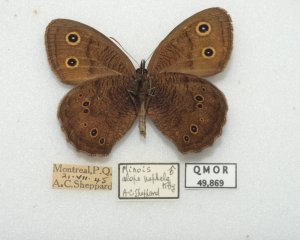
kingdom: Animalia
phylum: Arthropoda
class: Insecta
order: Lepidoptera
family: Nymphalidae
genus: Cercyonis
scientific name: Cercyonis pegala
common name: Common Wood-Nymph
